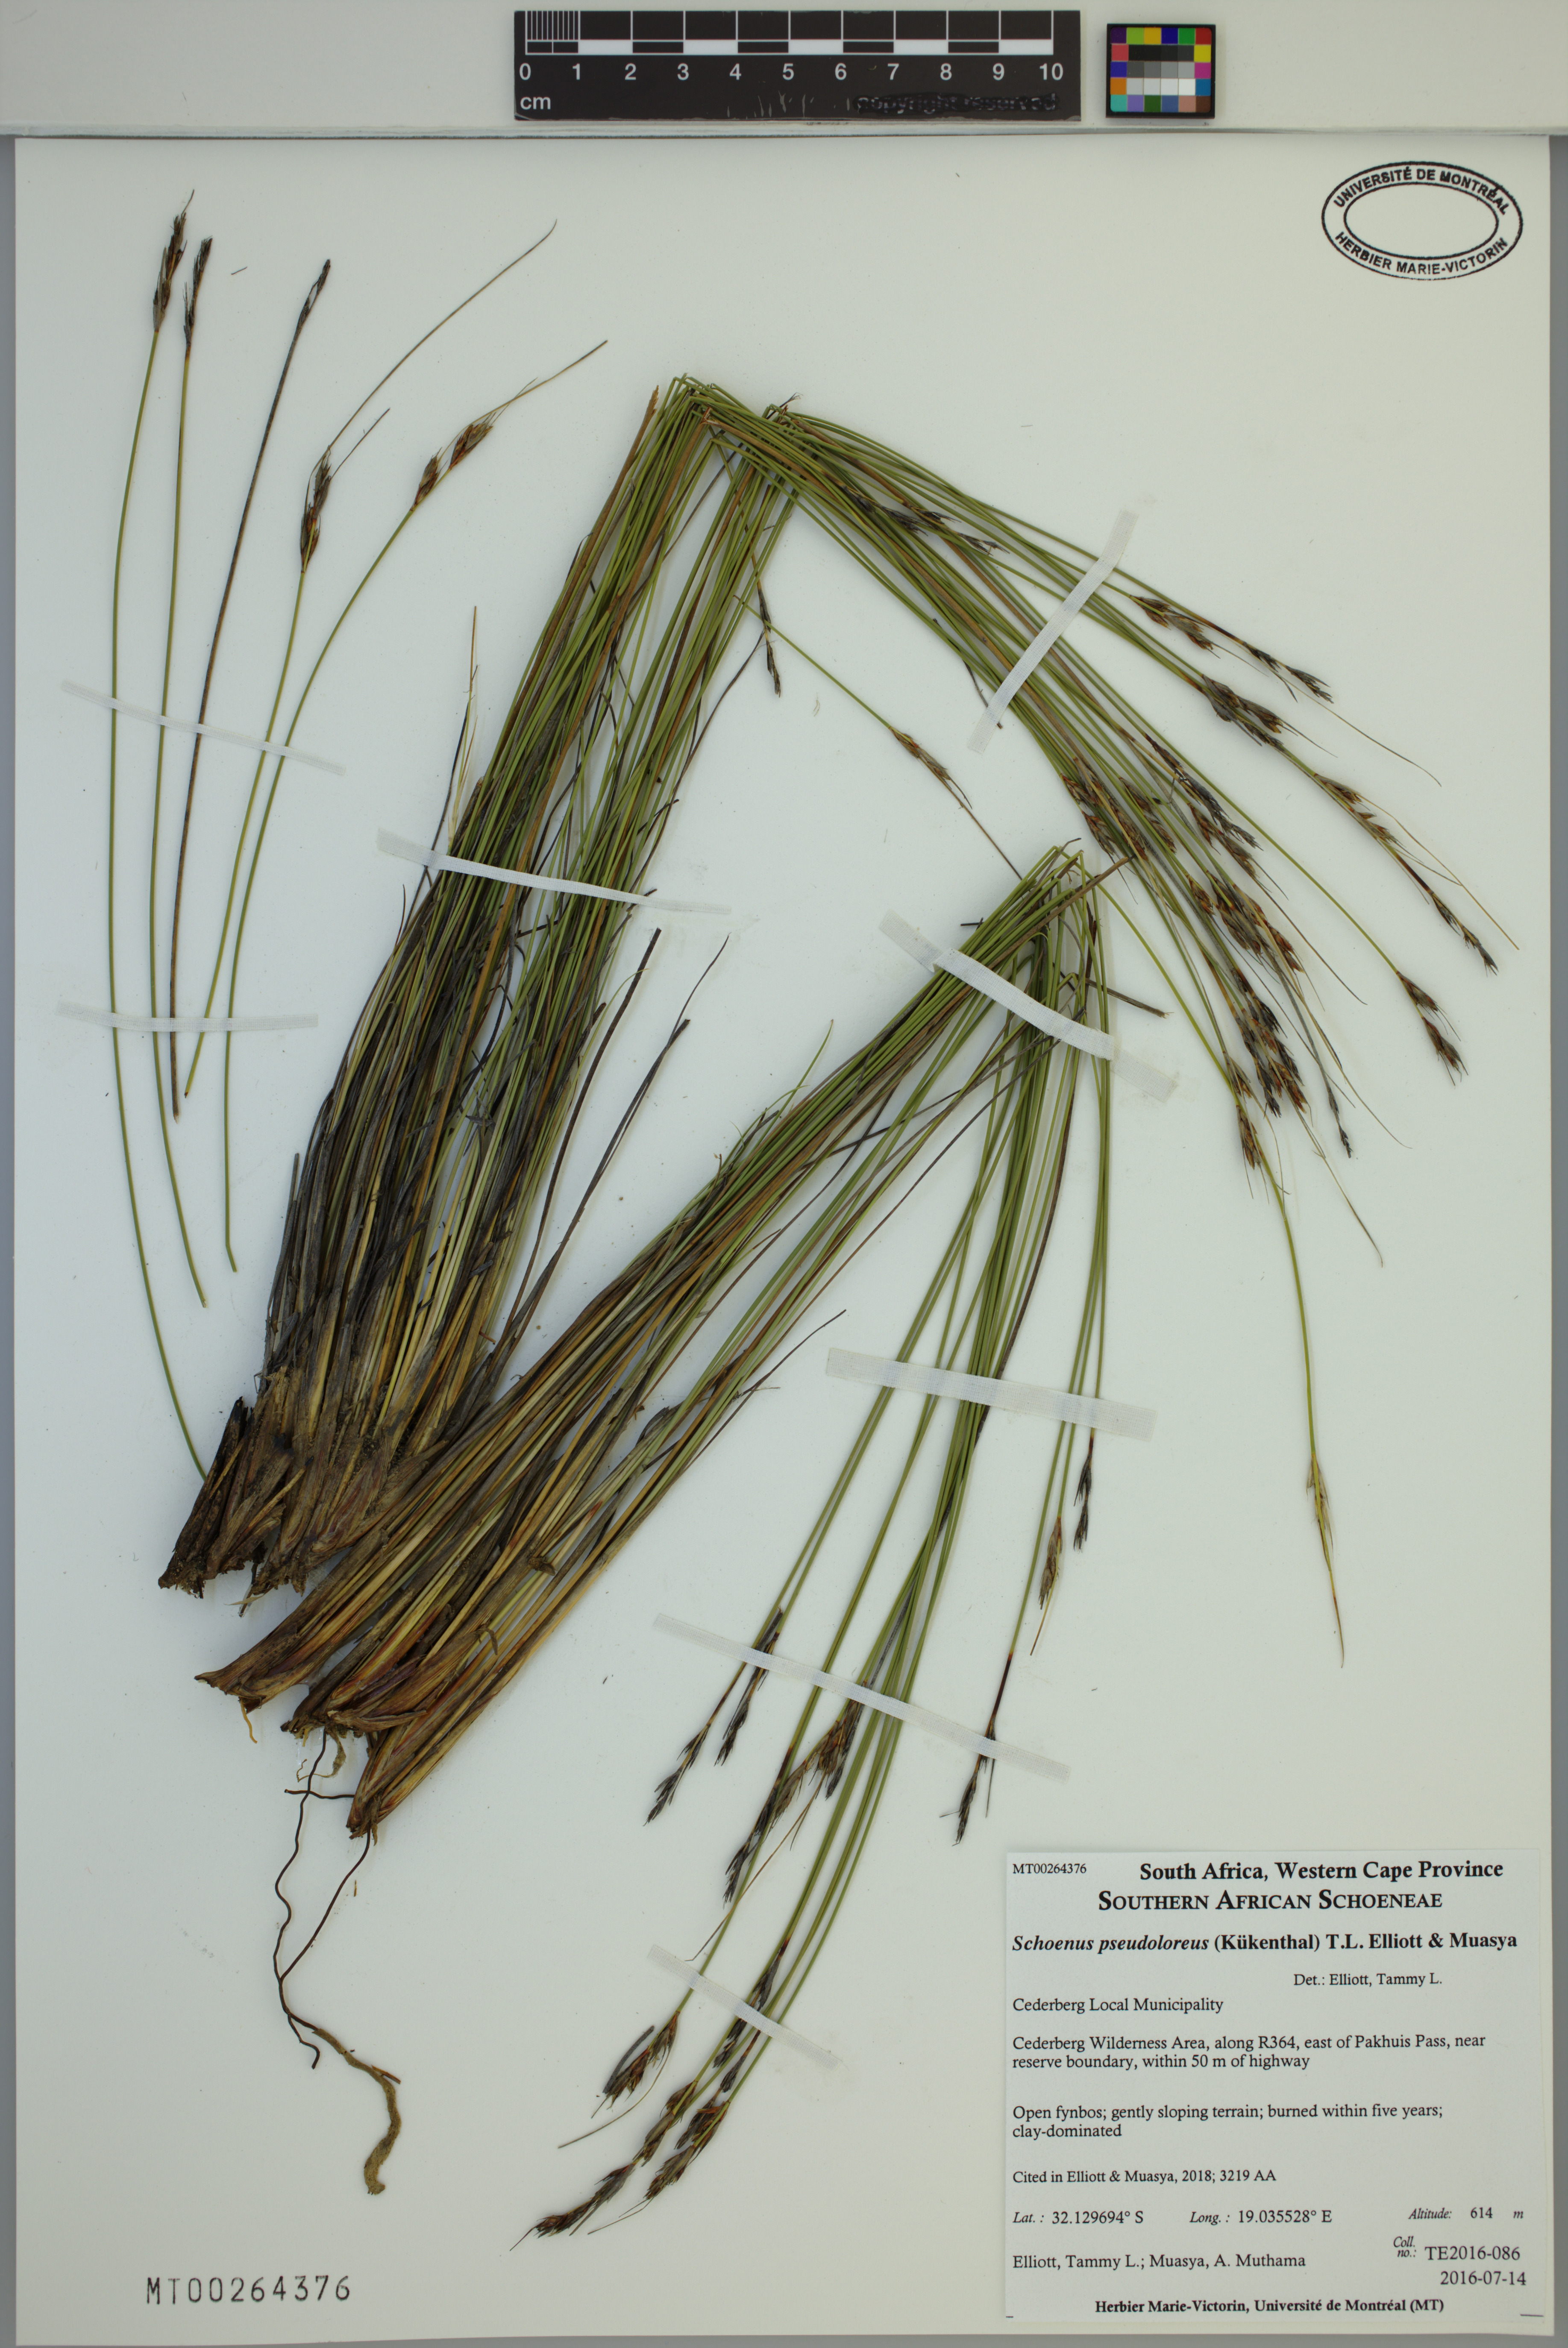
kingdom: Plantae
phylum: Tracheophyta
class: Liliopsida
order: Poales
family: Cyperaceae
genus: Schoenus
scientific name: Schoenus pseudoloreus
